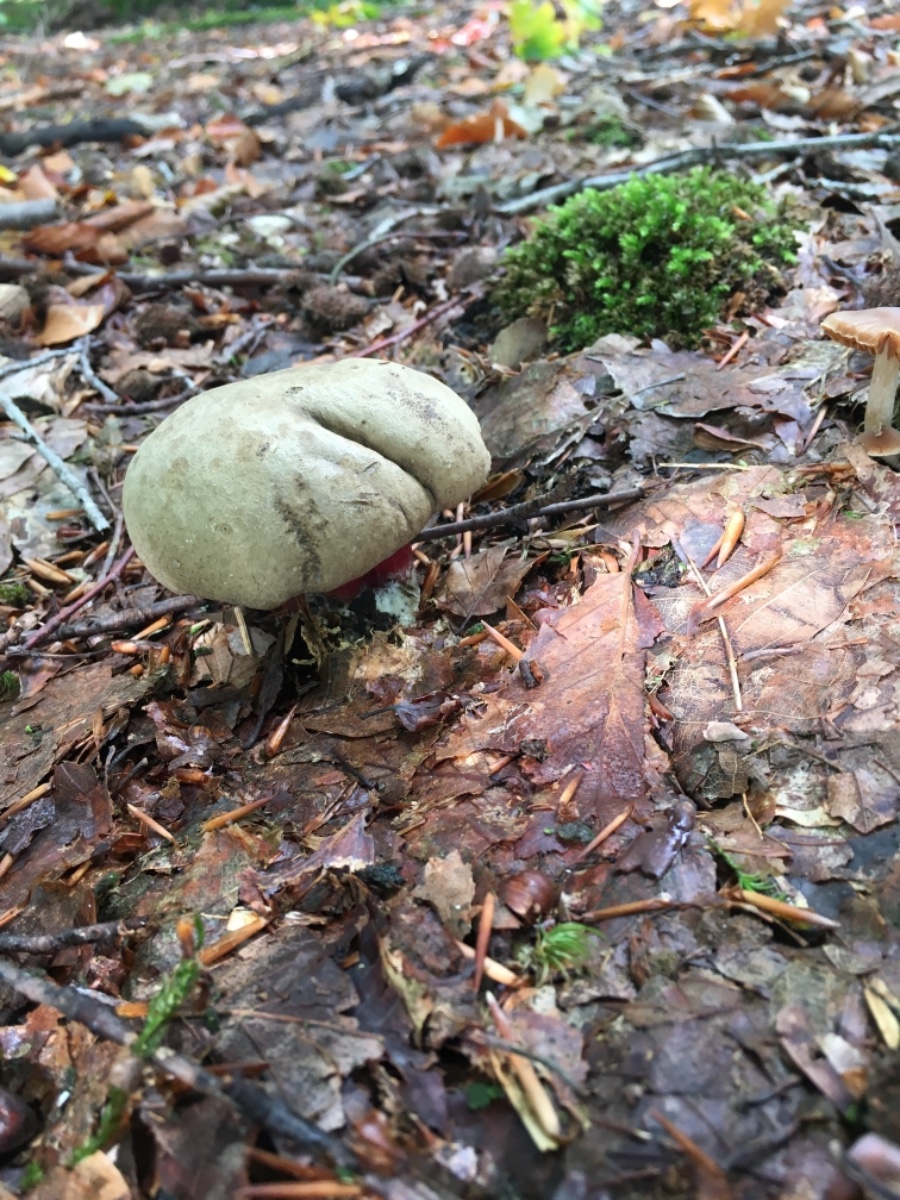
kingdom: Fungi
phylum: Basidiomycota
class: Agaricomycetes
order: Boletales
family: Boletaceae
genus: Caloboletus
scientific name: Caloboletus calopus
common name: skønfodet rørhat
